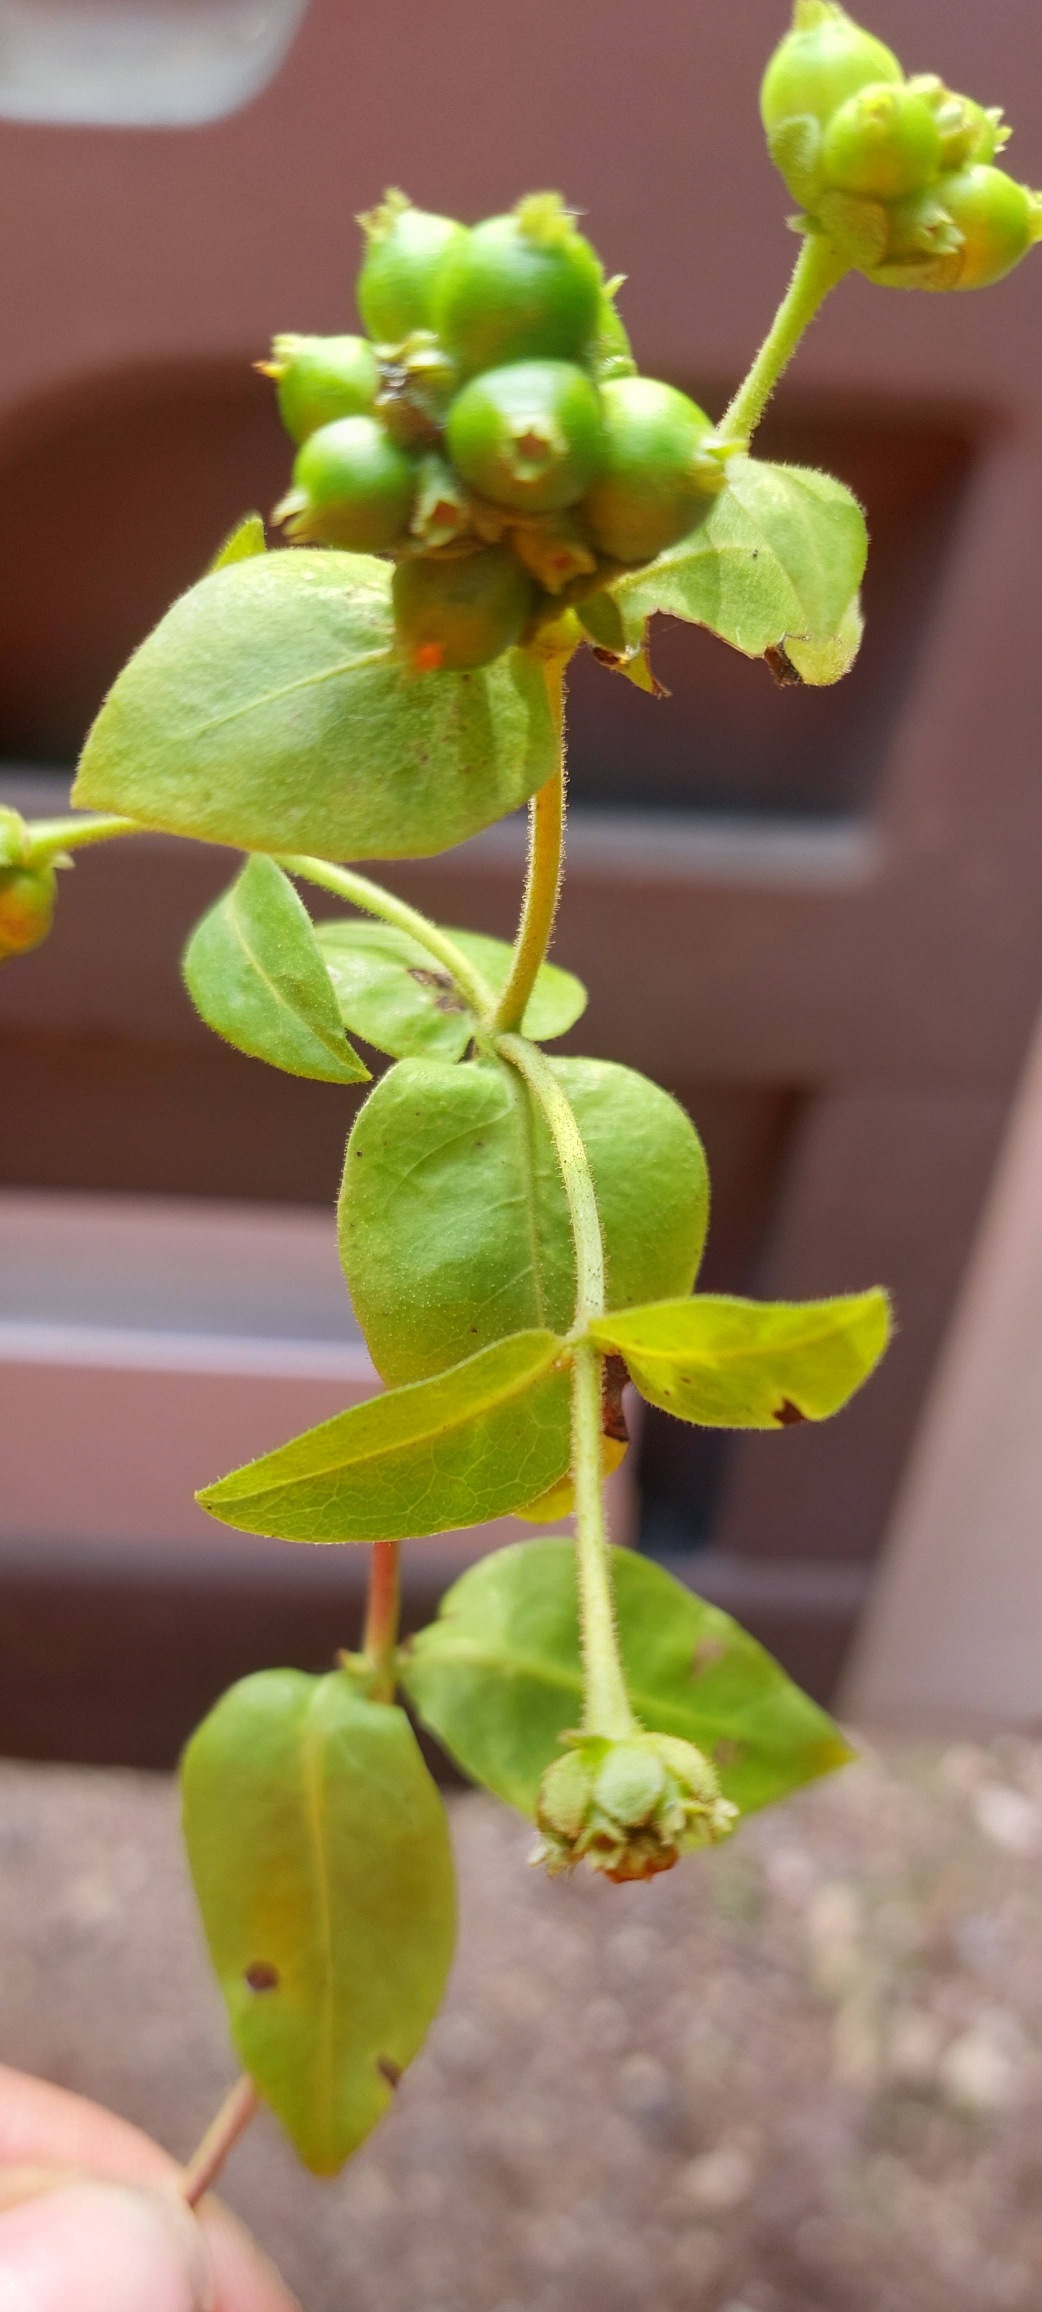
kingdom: Plantae
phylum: Tracheophyta
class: Magnoliopsida
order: Dipsacales
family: Caprifoliaceae
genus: Lonicera
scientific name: Lonicera periclymenum
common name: Almindelig gedeblad
